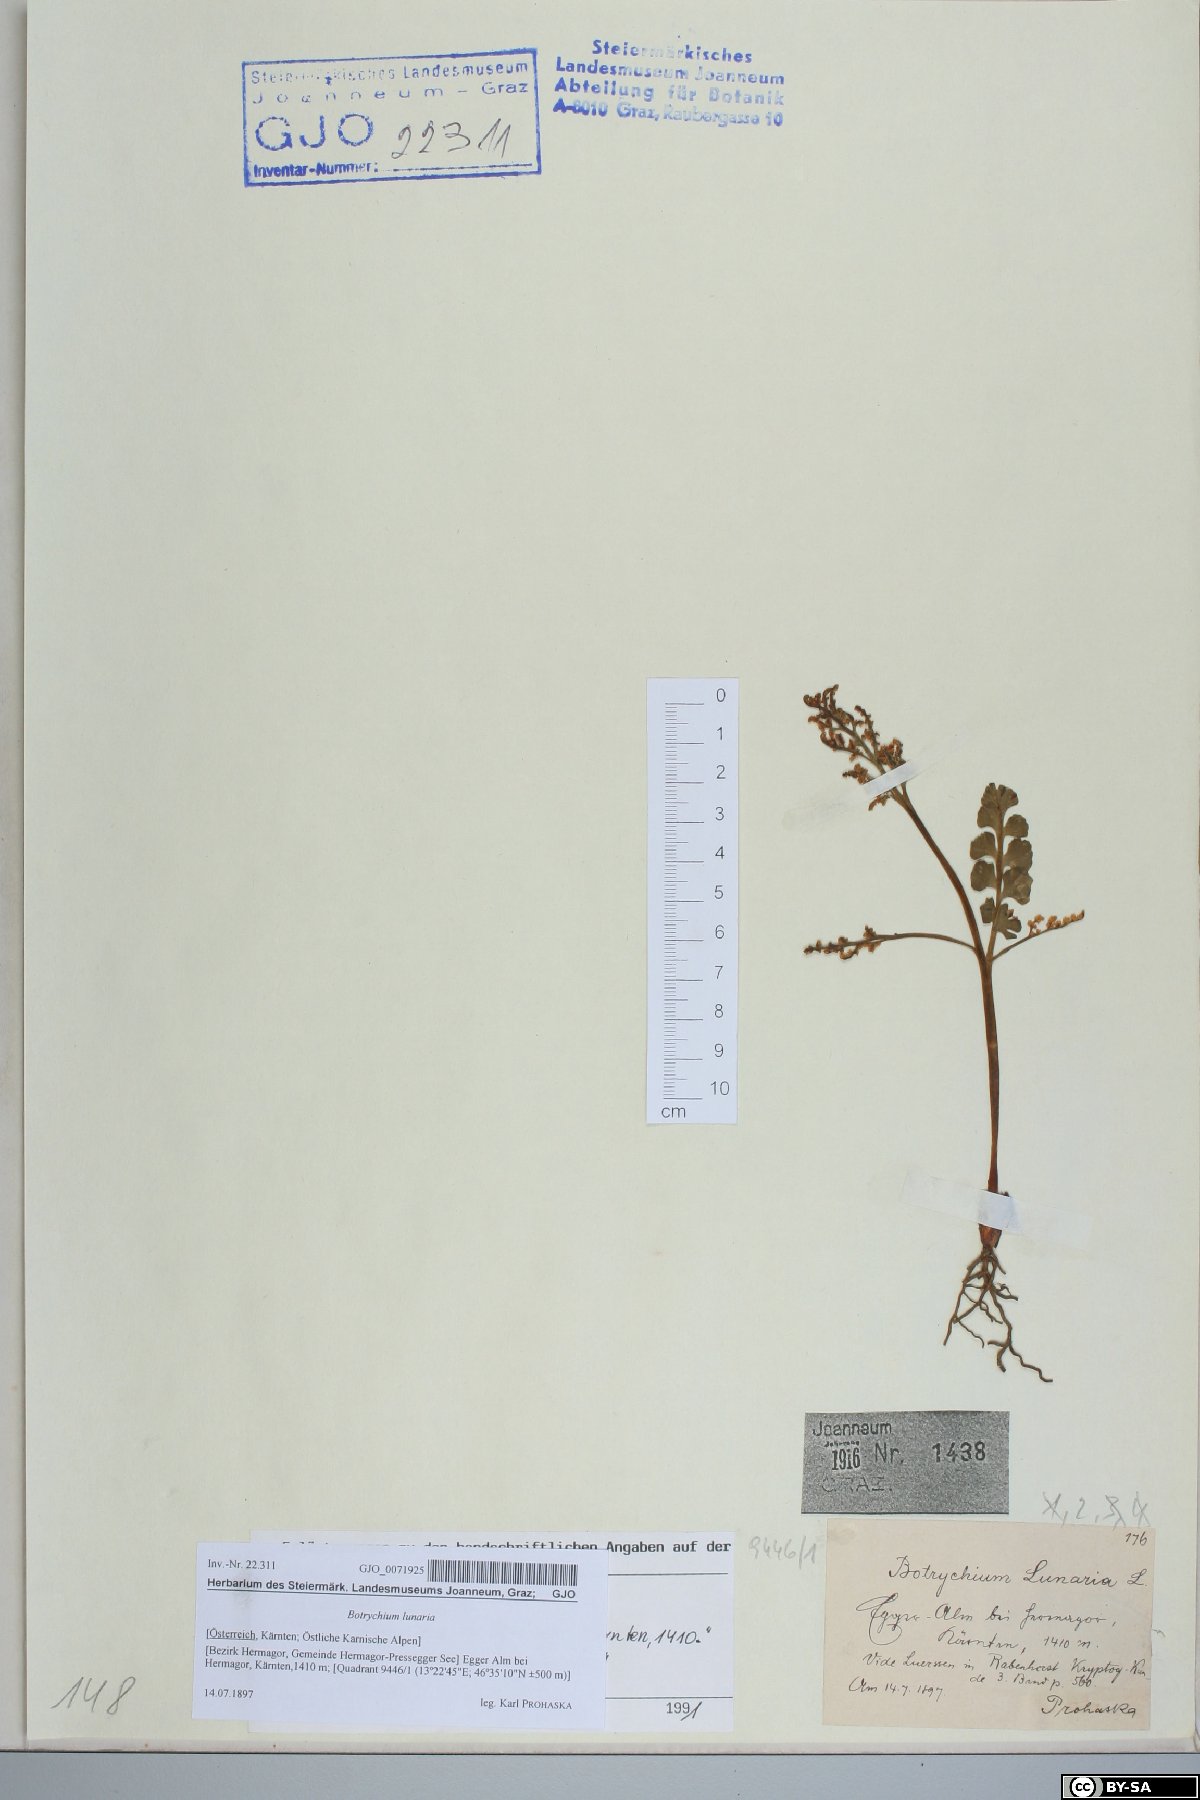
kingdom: Plantae
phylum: Tracheophyta
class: Polypodiopsida
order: Ophioglossales
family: Ophioglossaceae
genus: Botrychium
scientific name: Botrychium lunaria
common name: Moonwort
